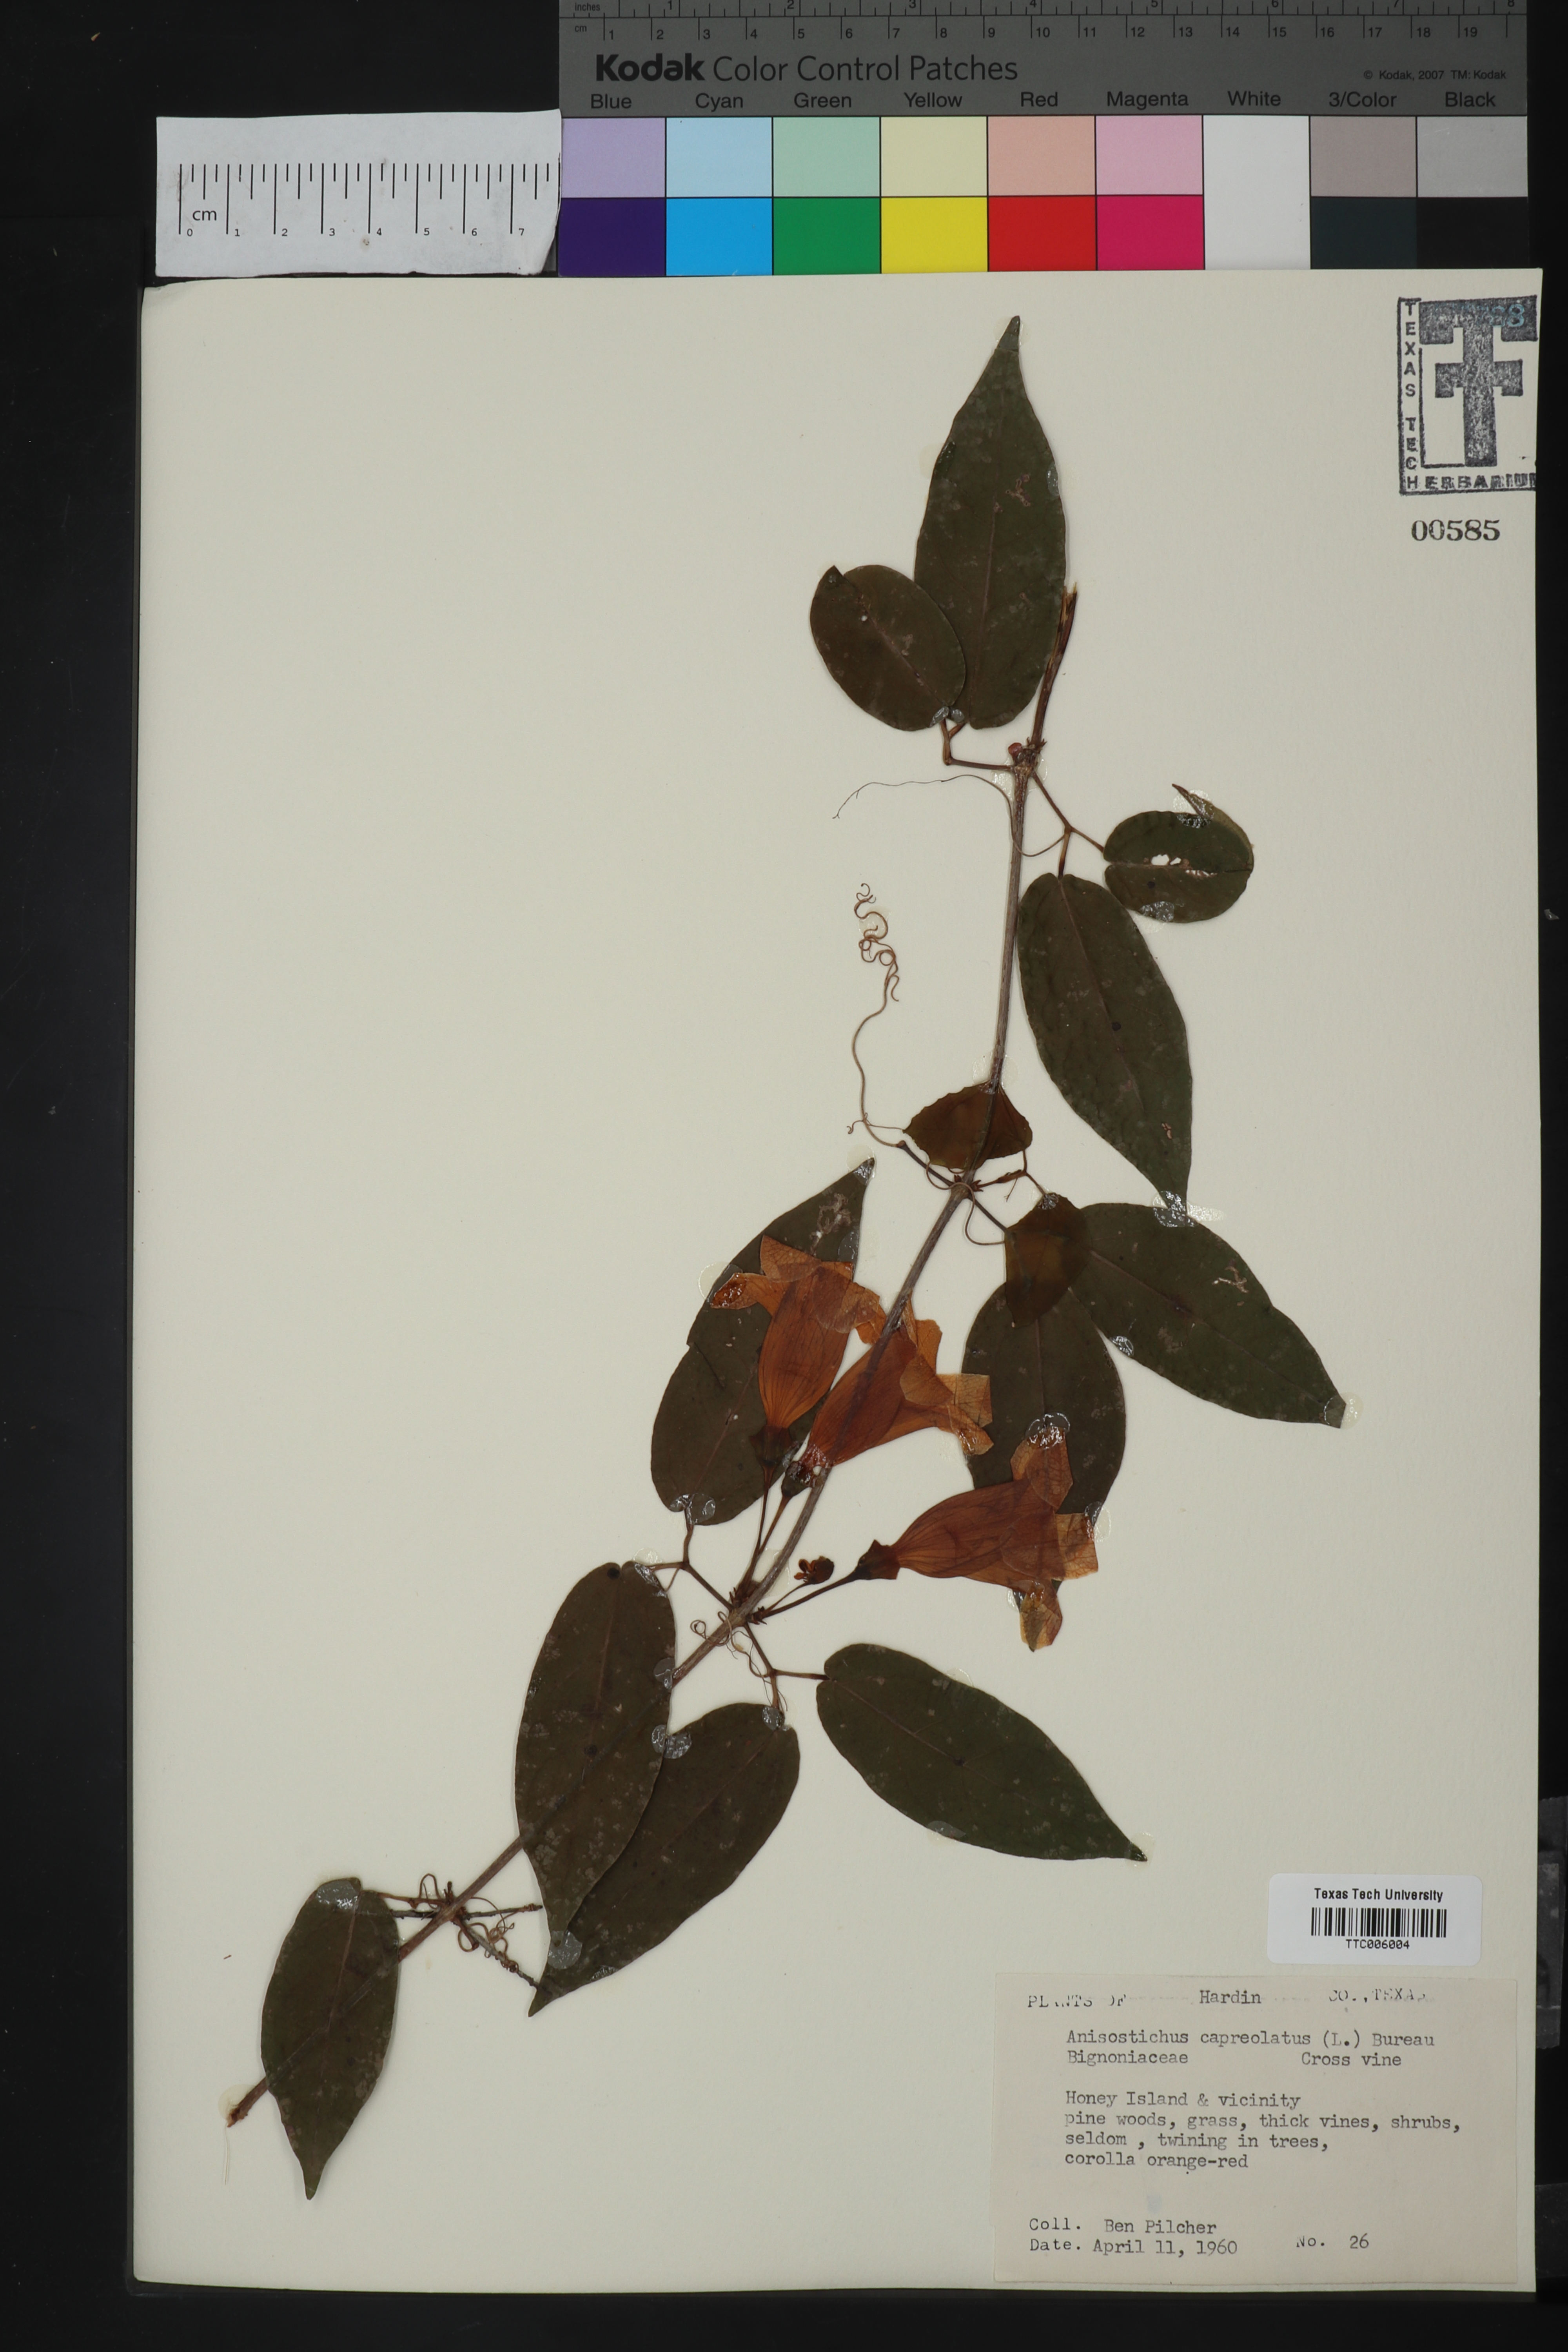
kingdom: Plantae
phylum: Tracheophyta
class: Magnoliopsida
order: Lamiales
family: Bignoniaceae
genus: Bignonia
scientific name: Bignonia capreolata
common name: Crossvine
